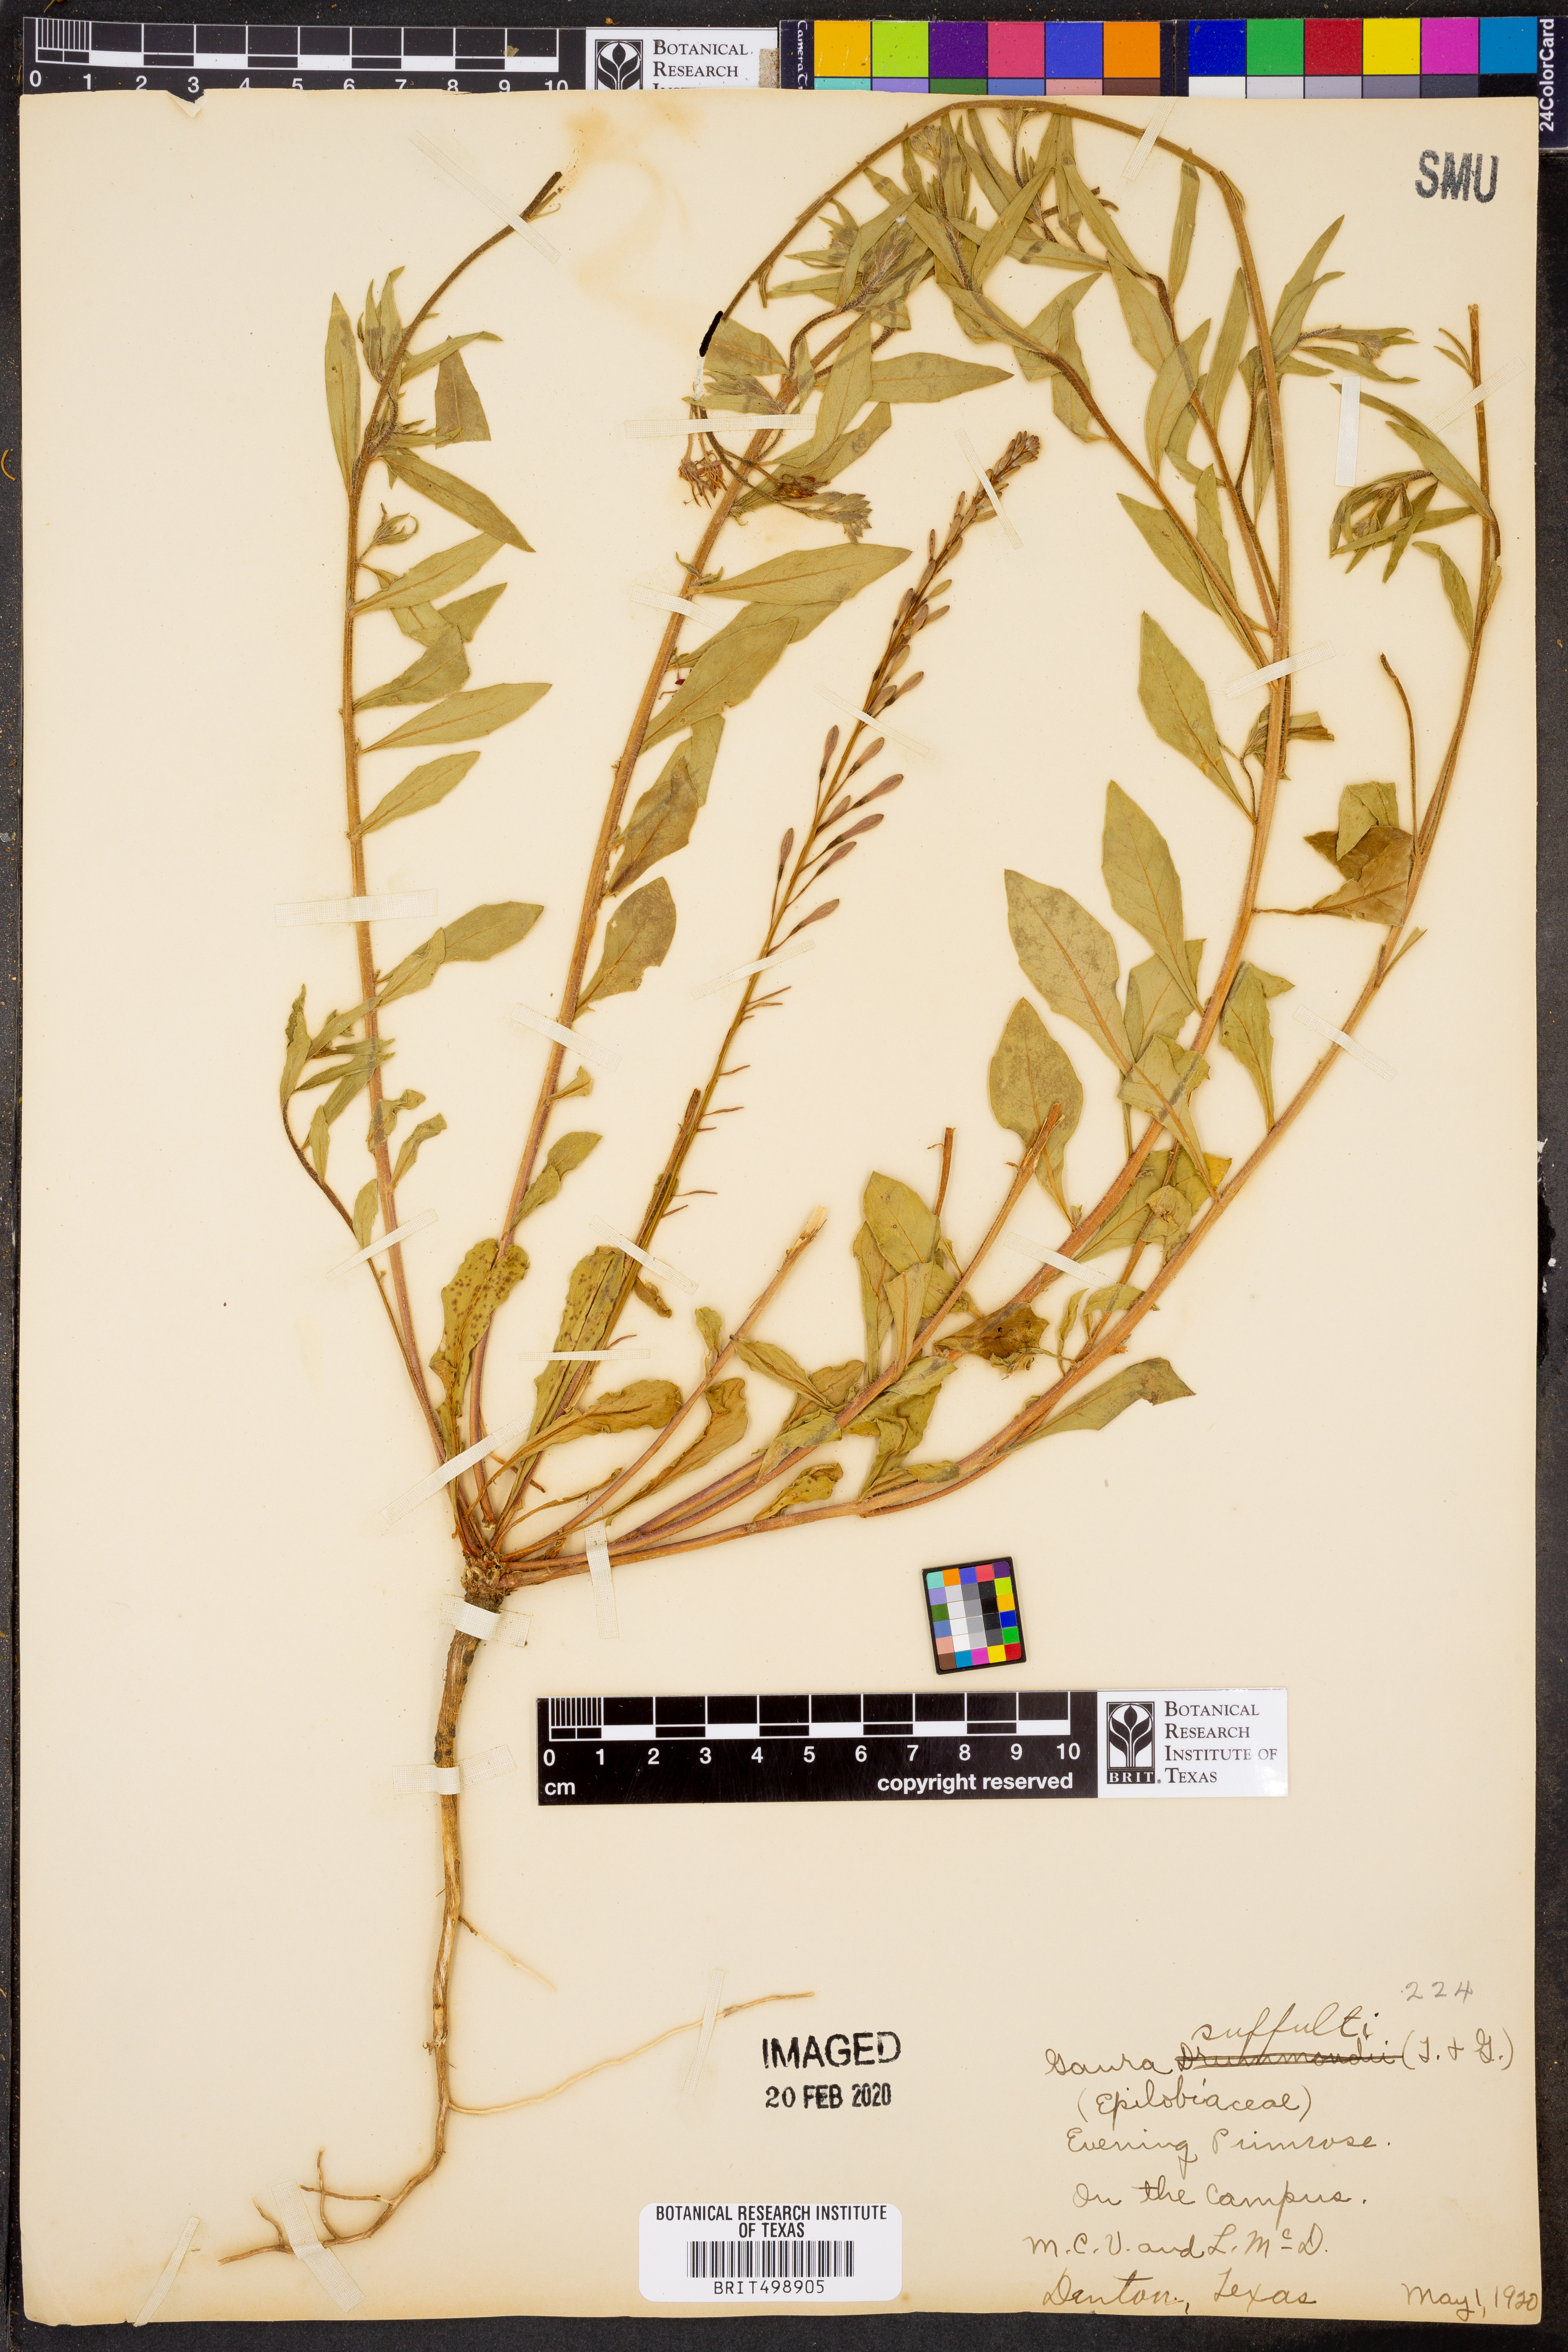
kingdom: Plantae
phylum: Tracheophyta
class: Magnoliopsida
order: Myrtales
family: Onagraceae
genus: Oenothera
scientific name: Oenothera Gaura suffulta
